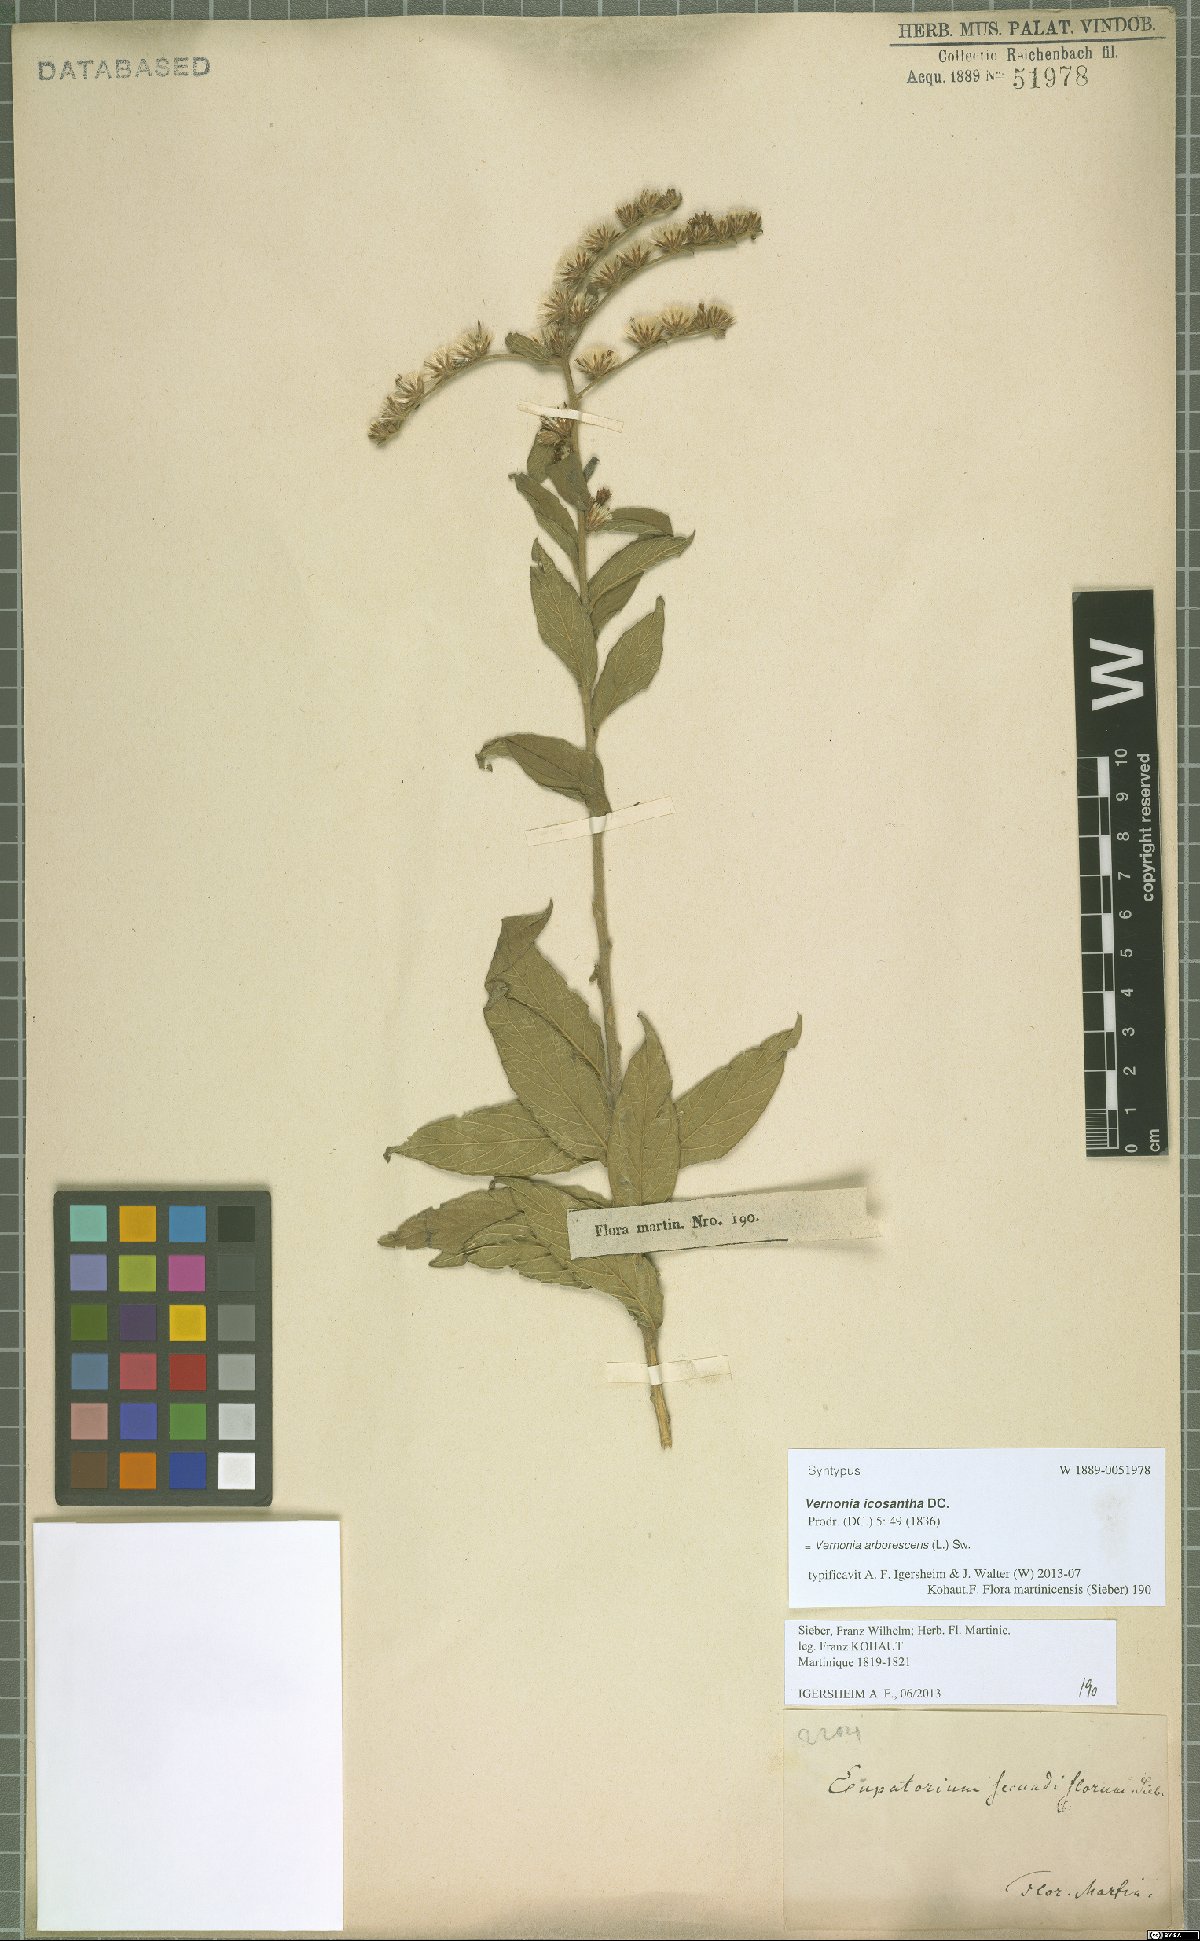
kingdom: Plantae
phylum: Tracheophyta
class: Magnoliopsida
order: Asterales
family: Asteraceae
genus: Lepidaploa
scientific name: Lepidaploa arborescens
